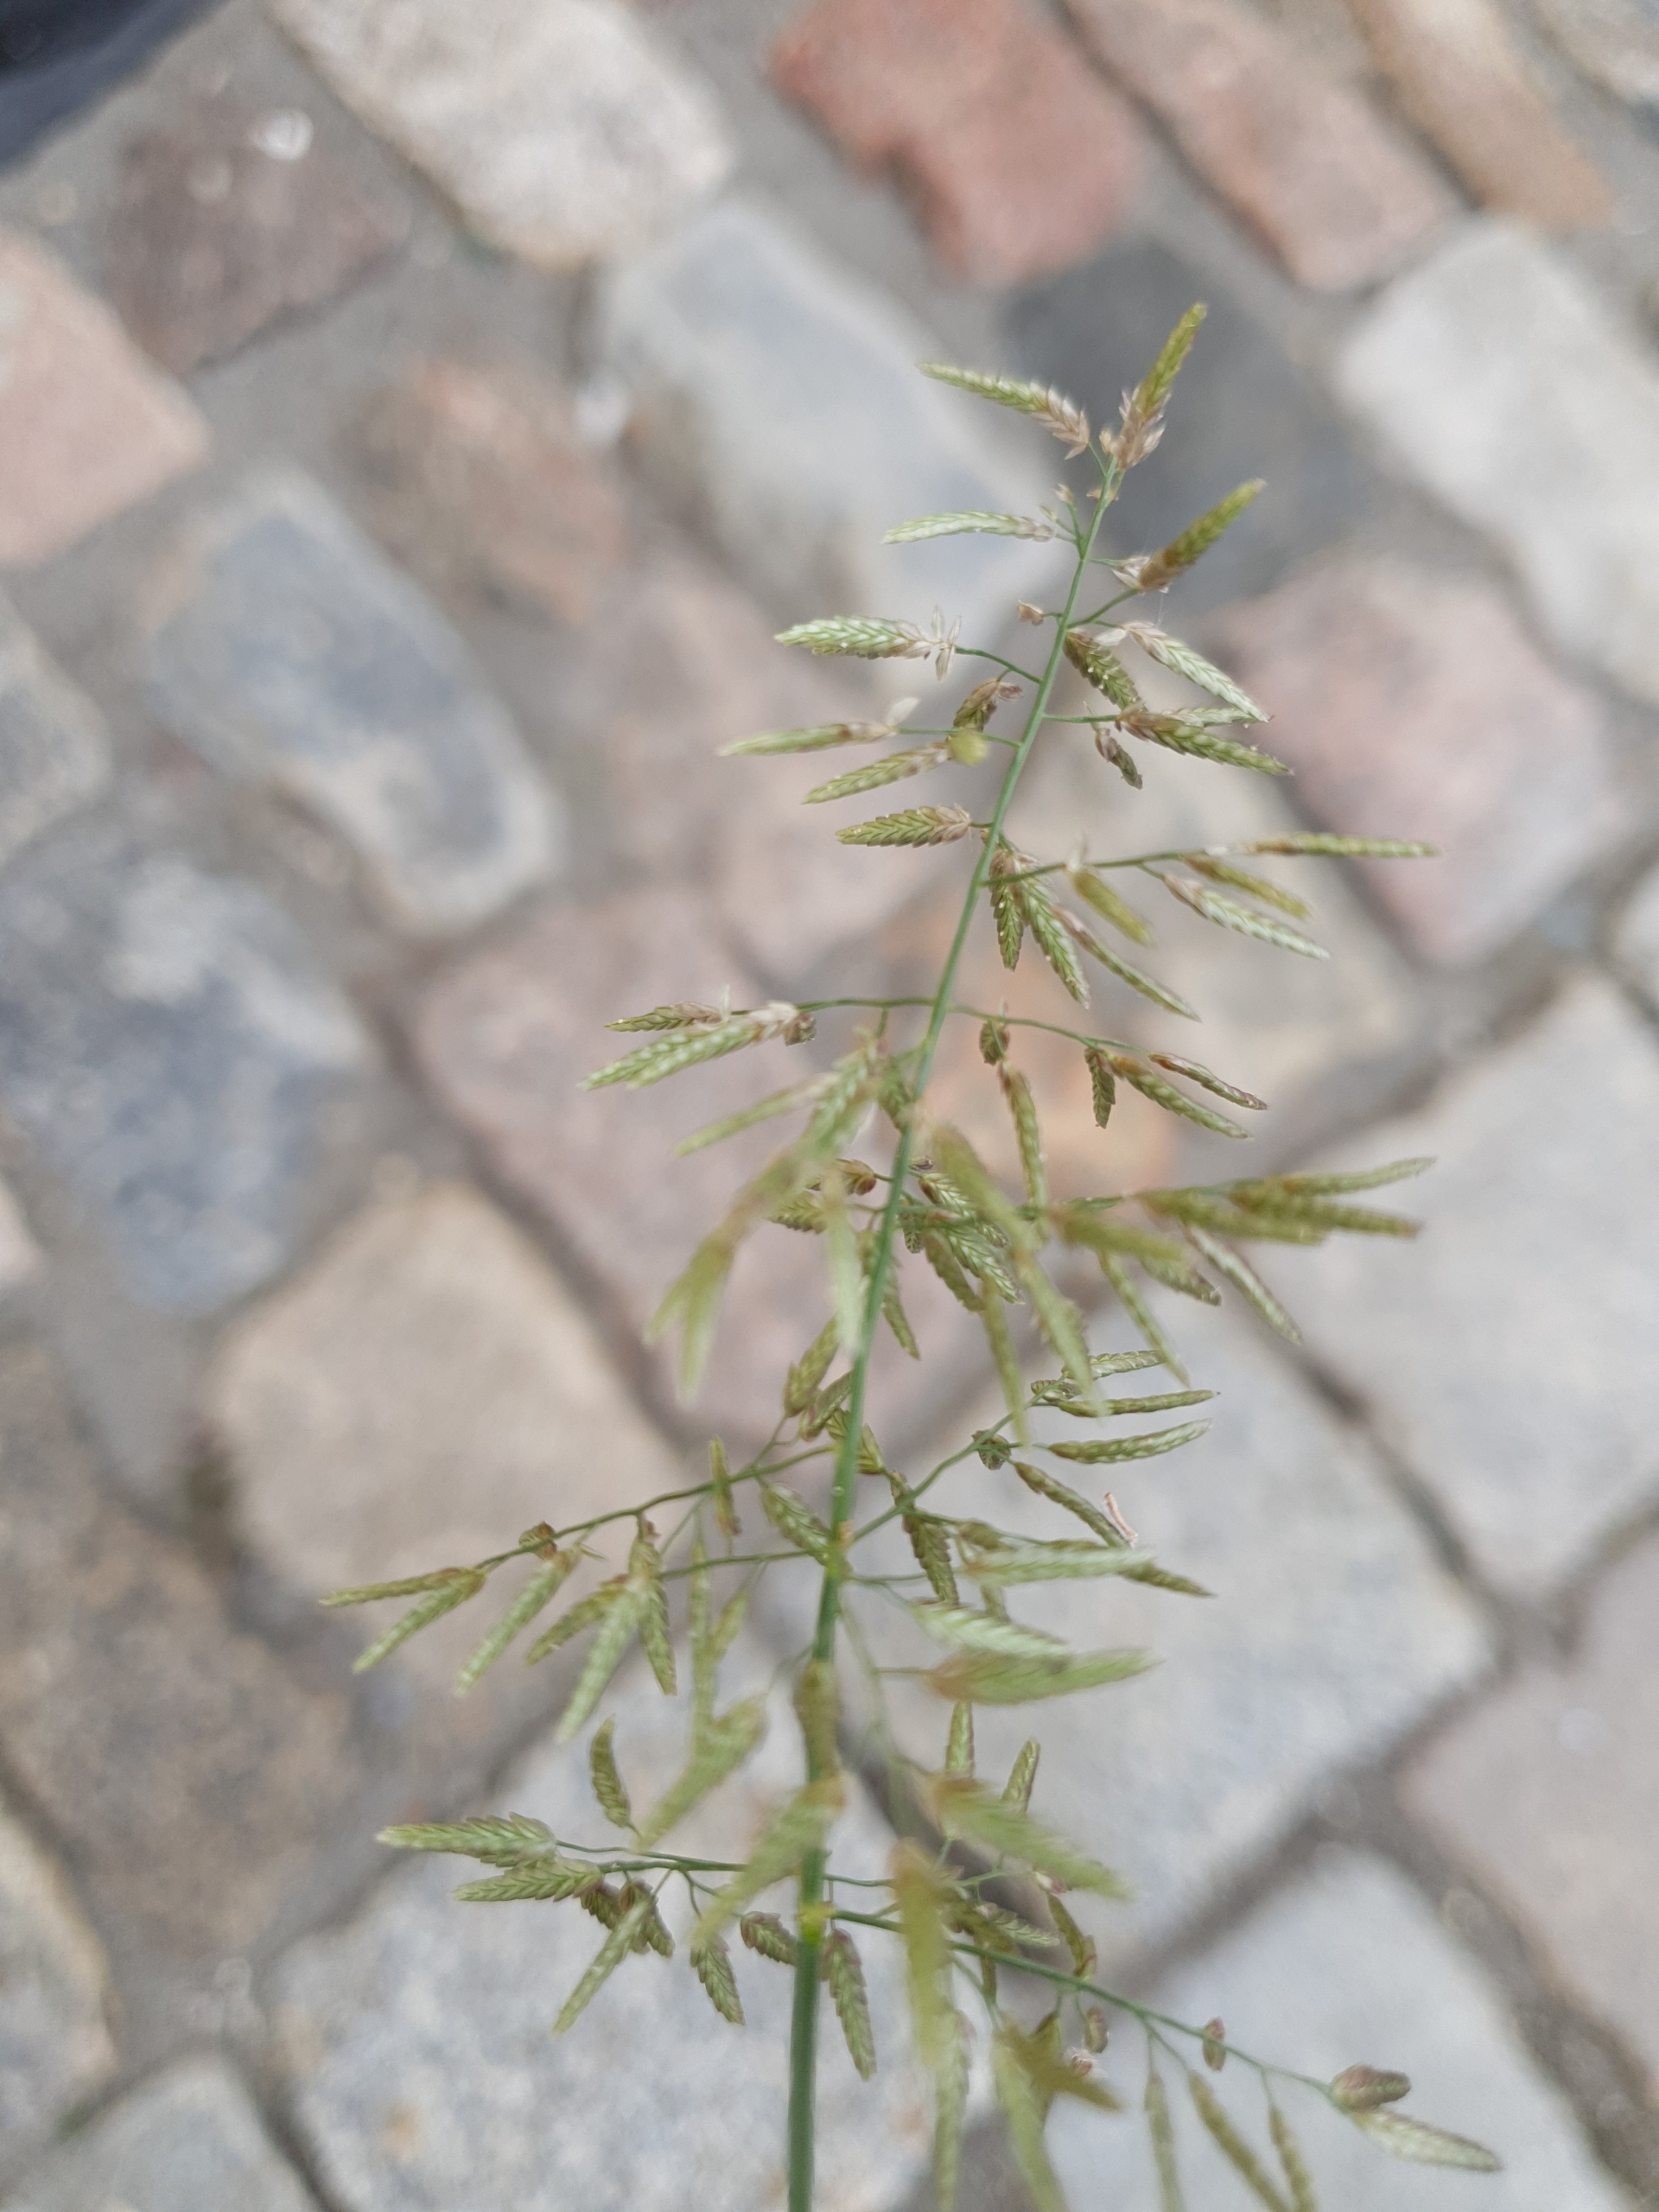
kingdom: Plantae
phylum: Tracheophyta
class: Liliopsida
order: Poales
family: Poaceae
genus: Eragrostis
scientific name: Eragrostis cilianensis
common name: Stor kærlighedsgræs
